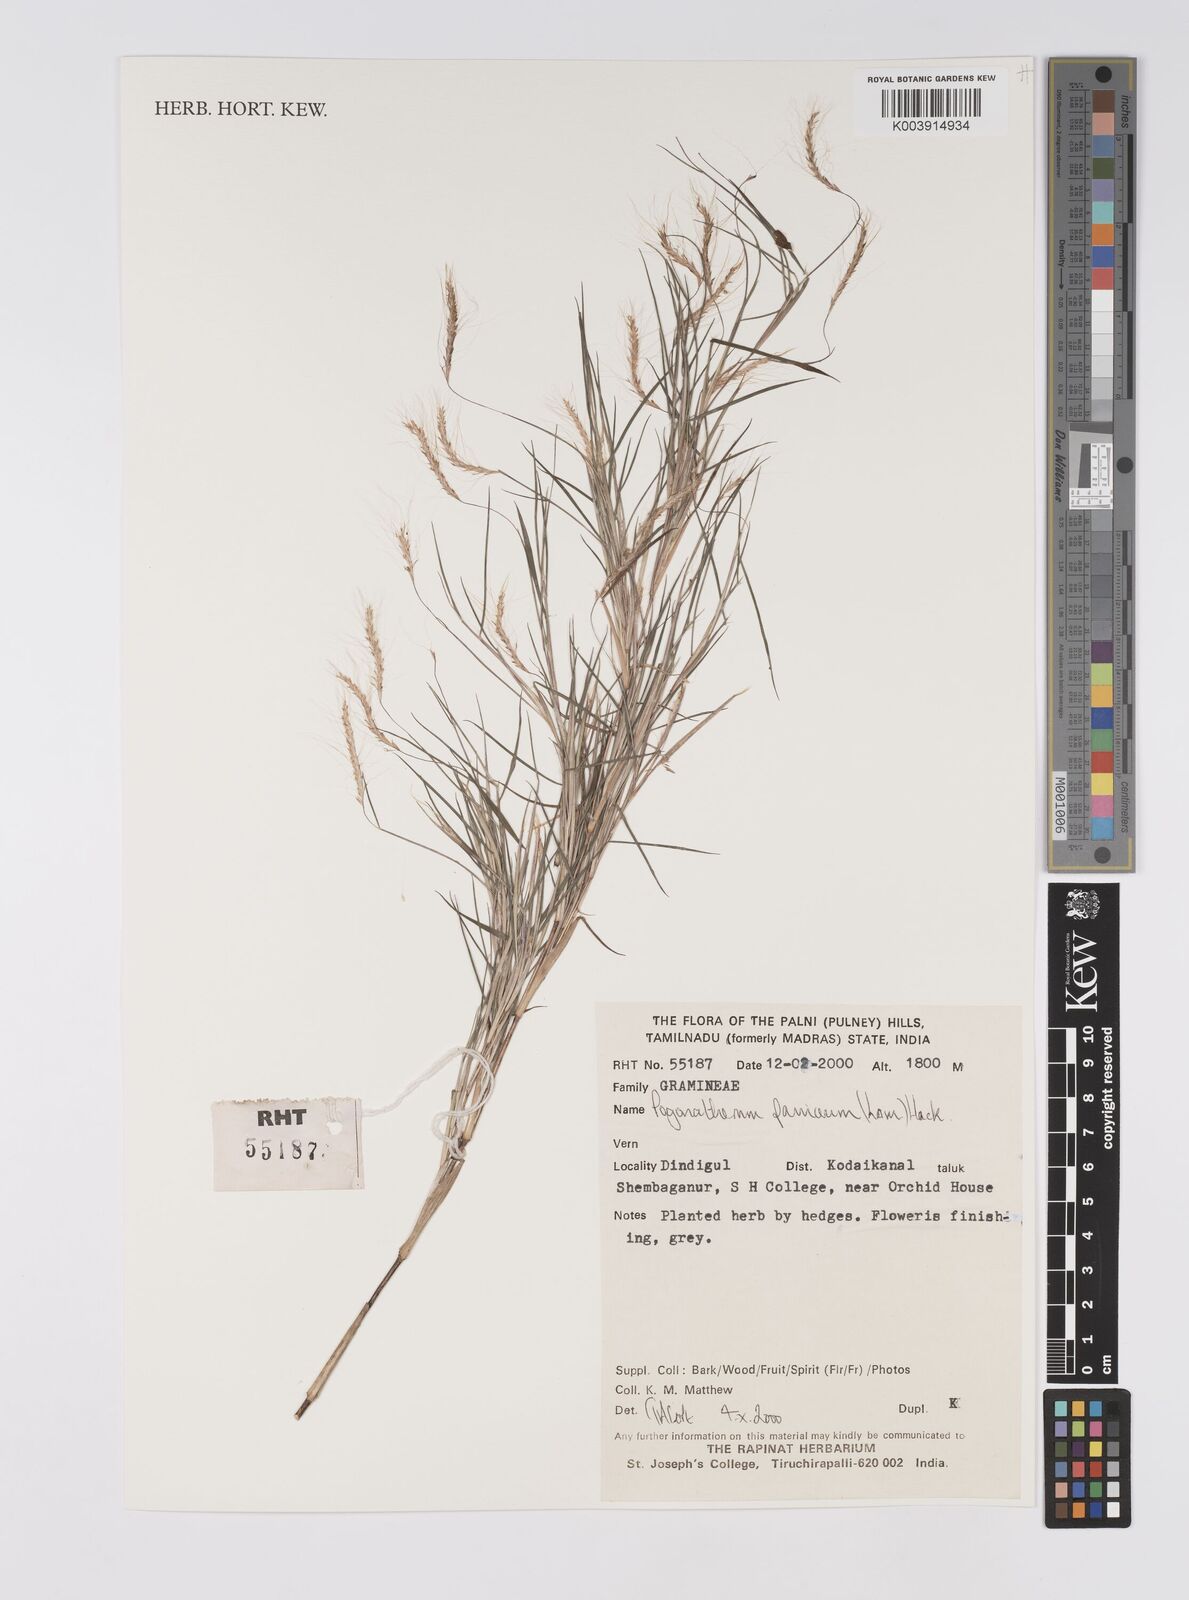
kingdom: Plantae
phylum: Tracheophyta
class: Liliopsida
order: Poales
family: Poaceae
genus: Pogonatherum
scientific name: Pogonatherum paniceum
